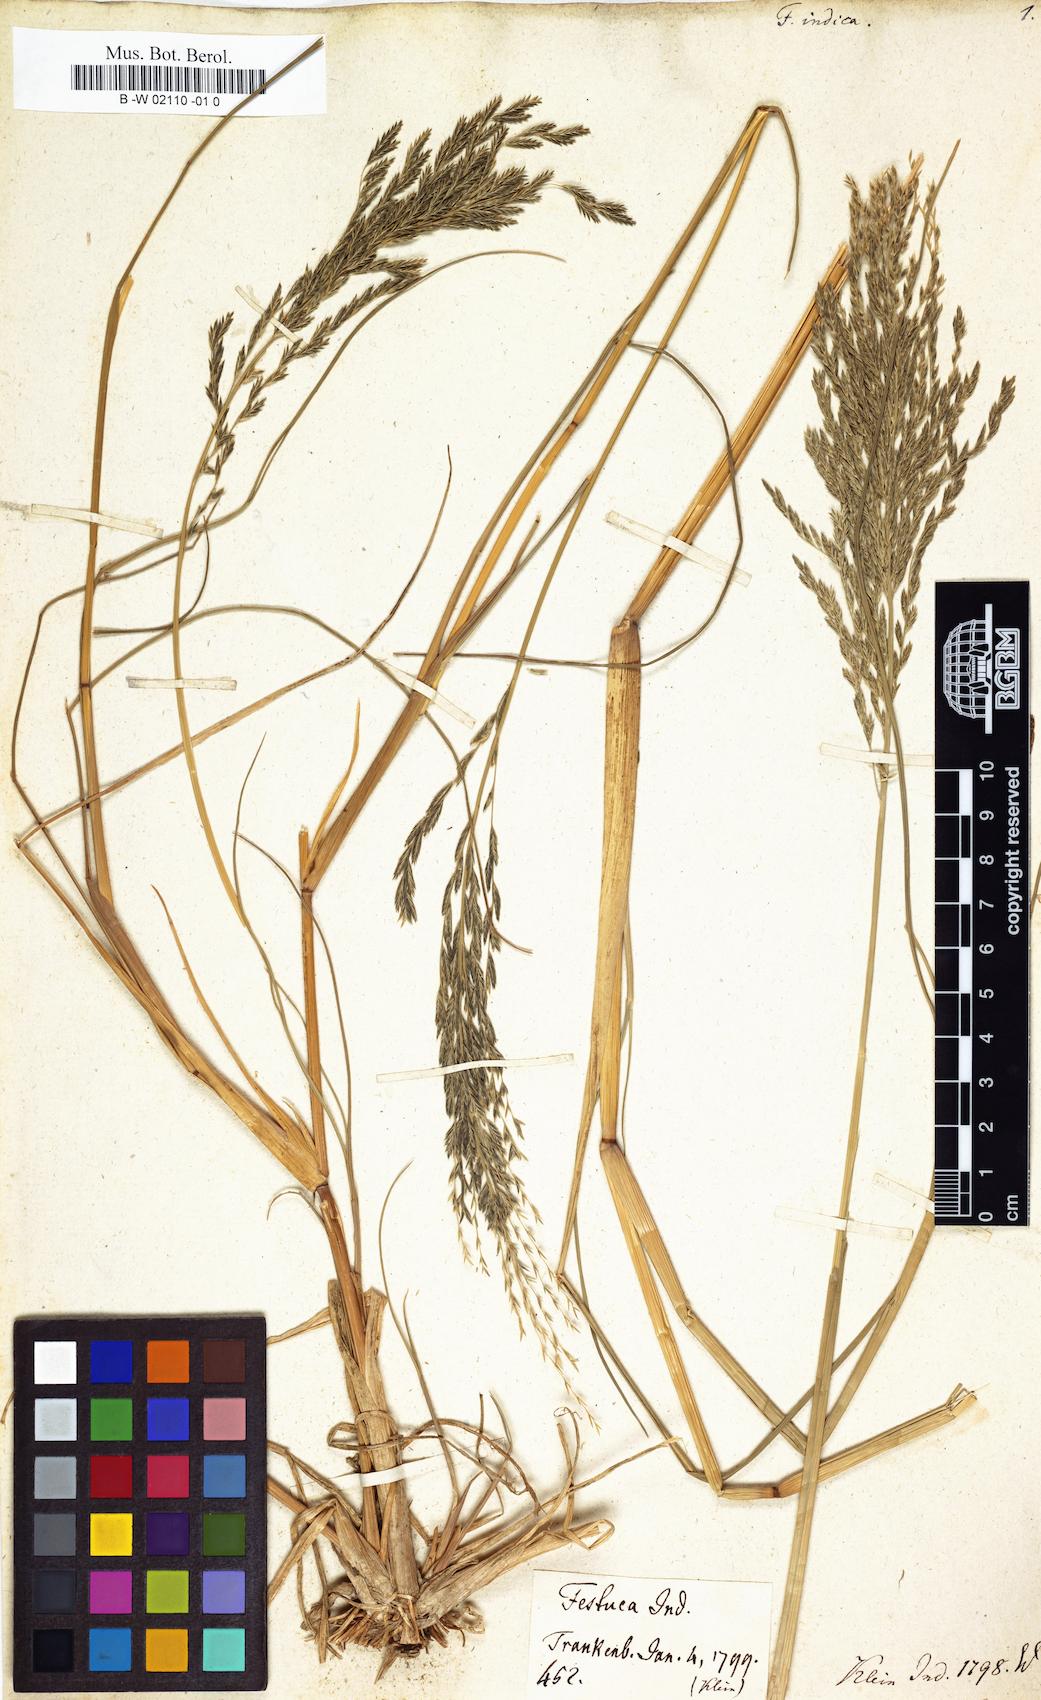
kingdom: Plantae
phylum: Tracheophyta
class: Liliopsida
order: Poales
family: Poaceae
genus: Diplachne
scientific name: Diplachne fusca
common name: Brown beetle grass
